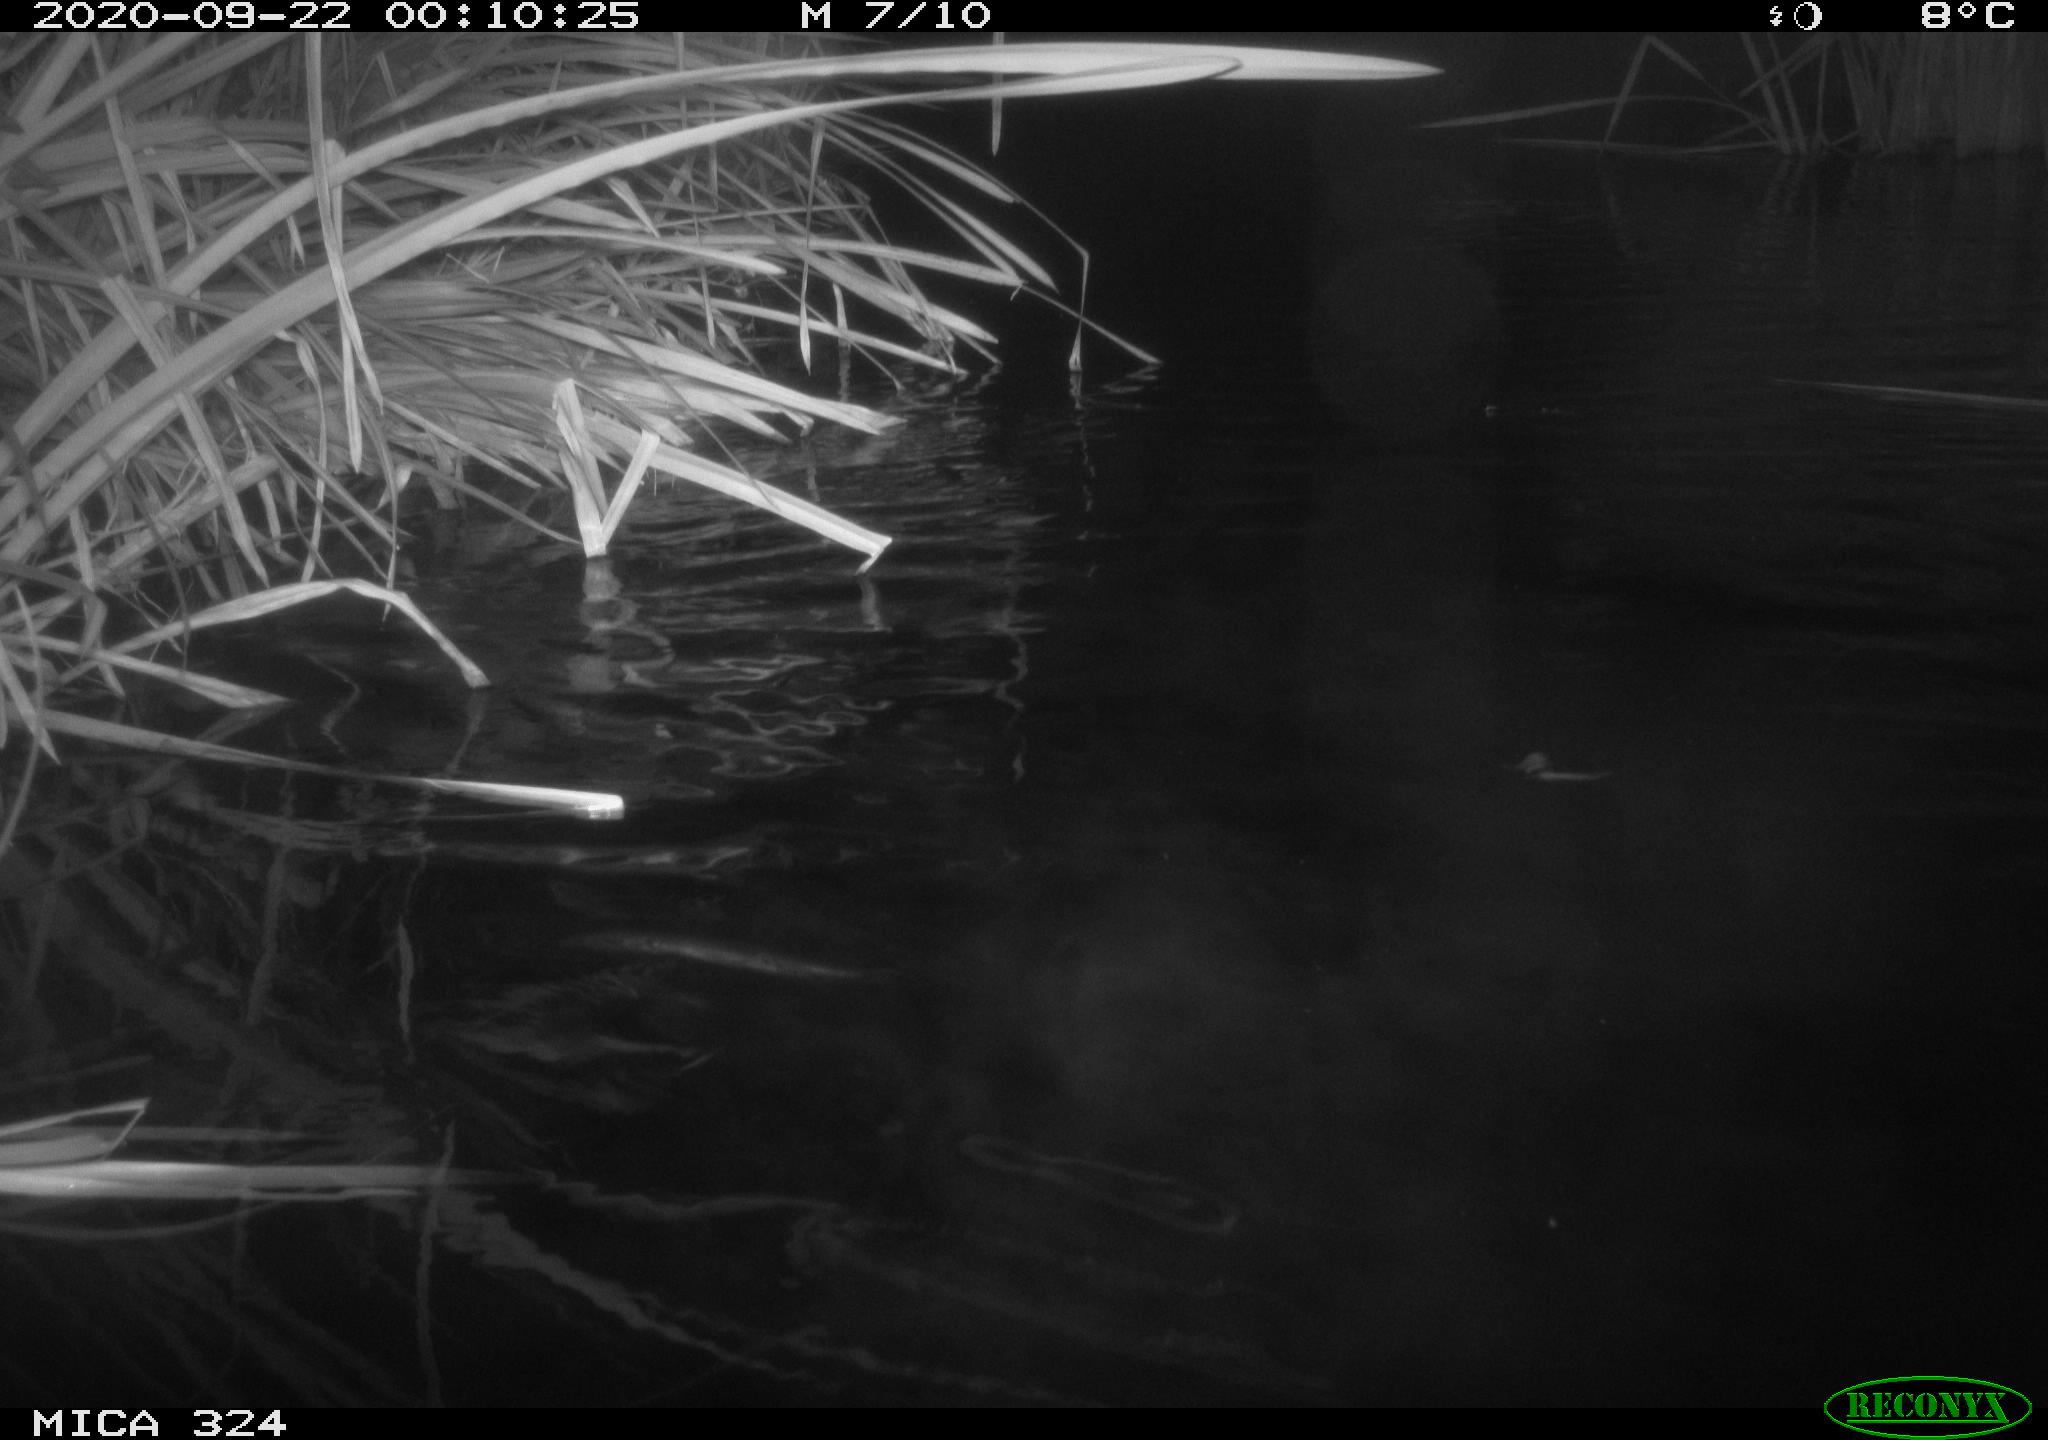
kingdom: Animalia
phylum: Chordata
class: Mammalia
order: Rodentia
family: Myocastoridae
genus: Myocastor
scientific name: Myocastor coypus
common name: Coypu
